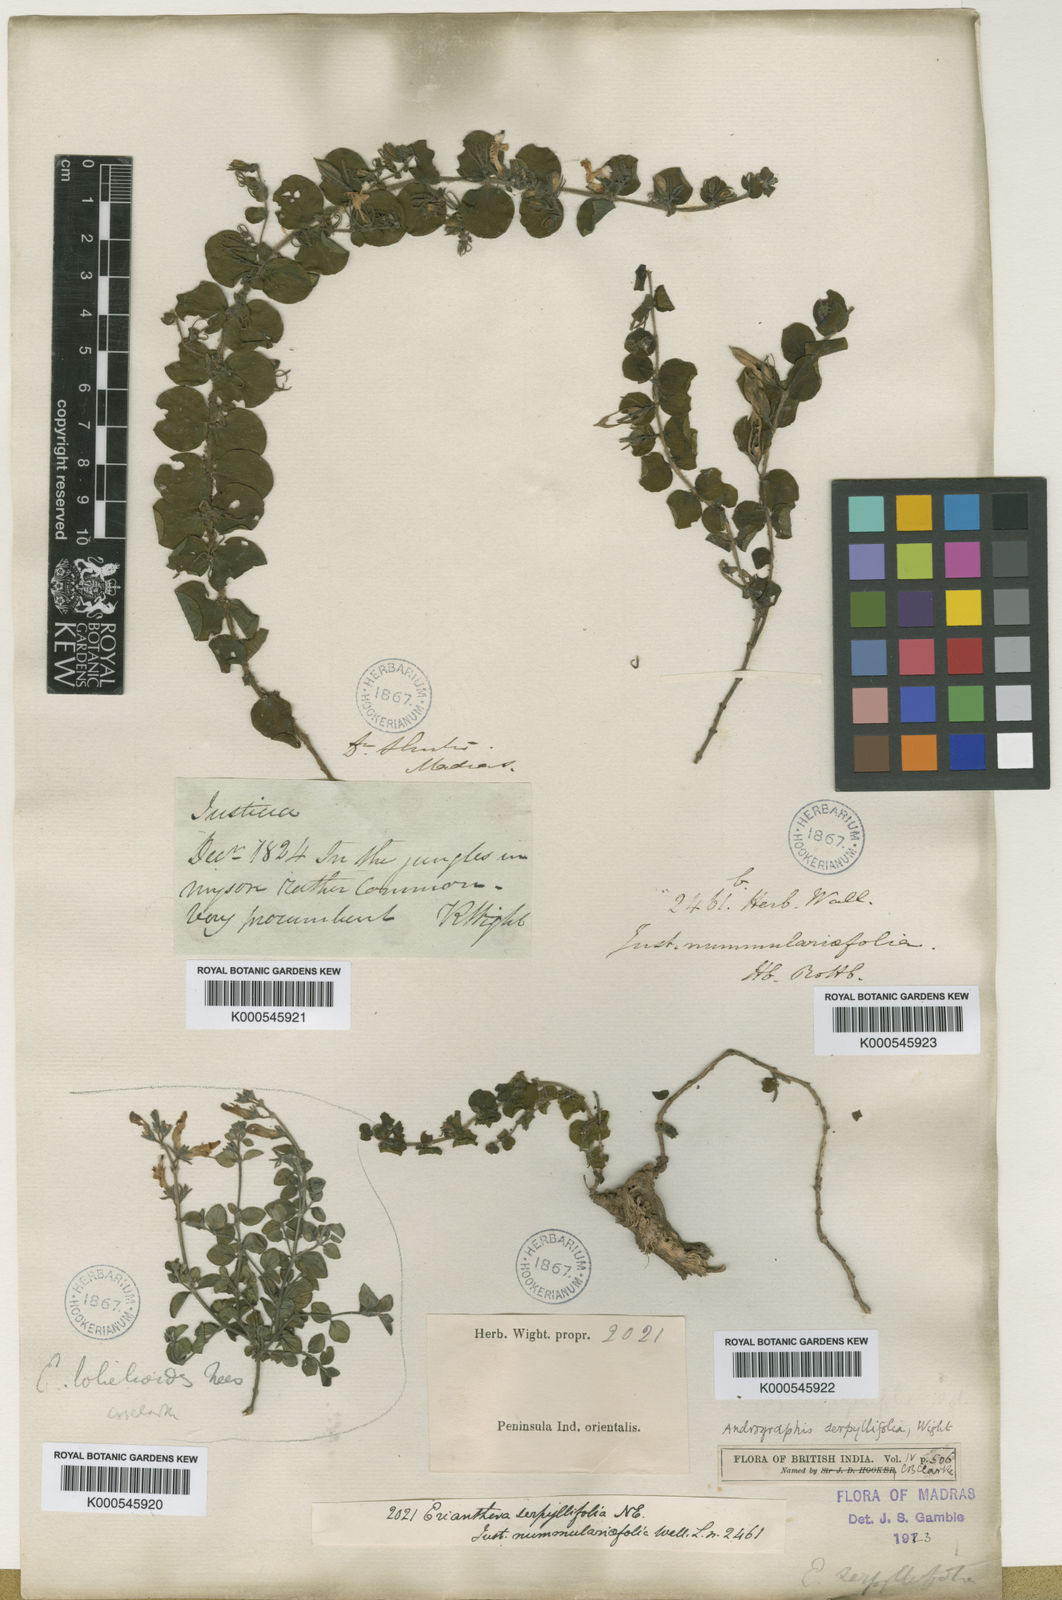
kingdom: Plantae
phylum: Tracheophyta
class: Magnoliopsida
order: Lamiales
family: Acanthaceae
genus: Andrographis
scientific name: Andrographis serpyllifolia
